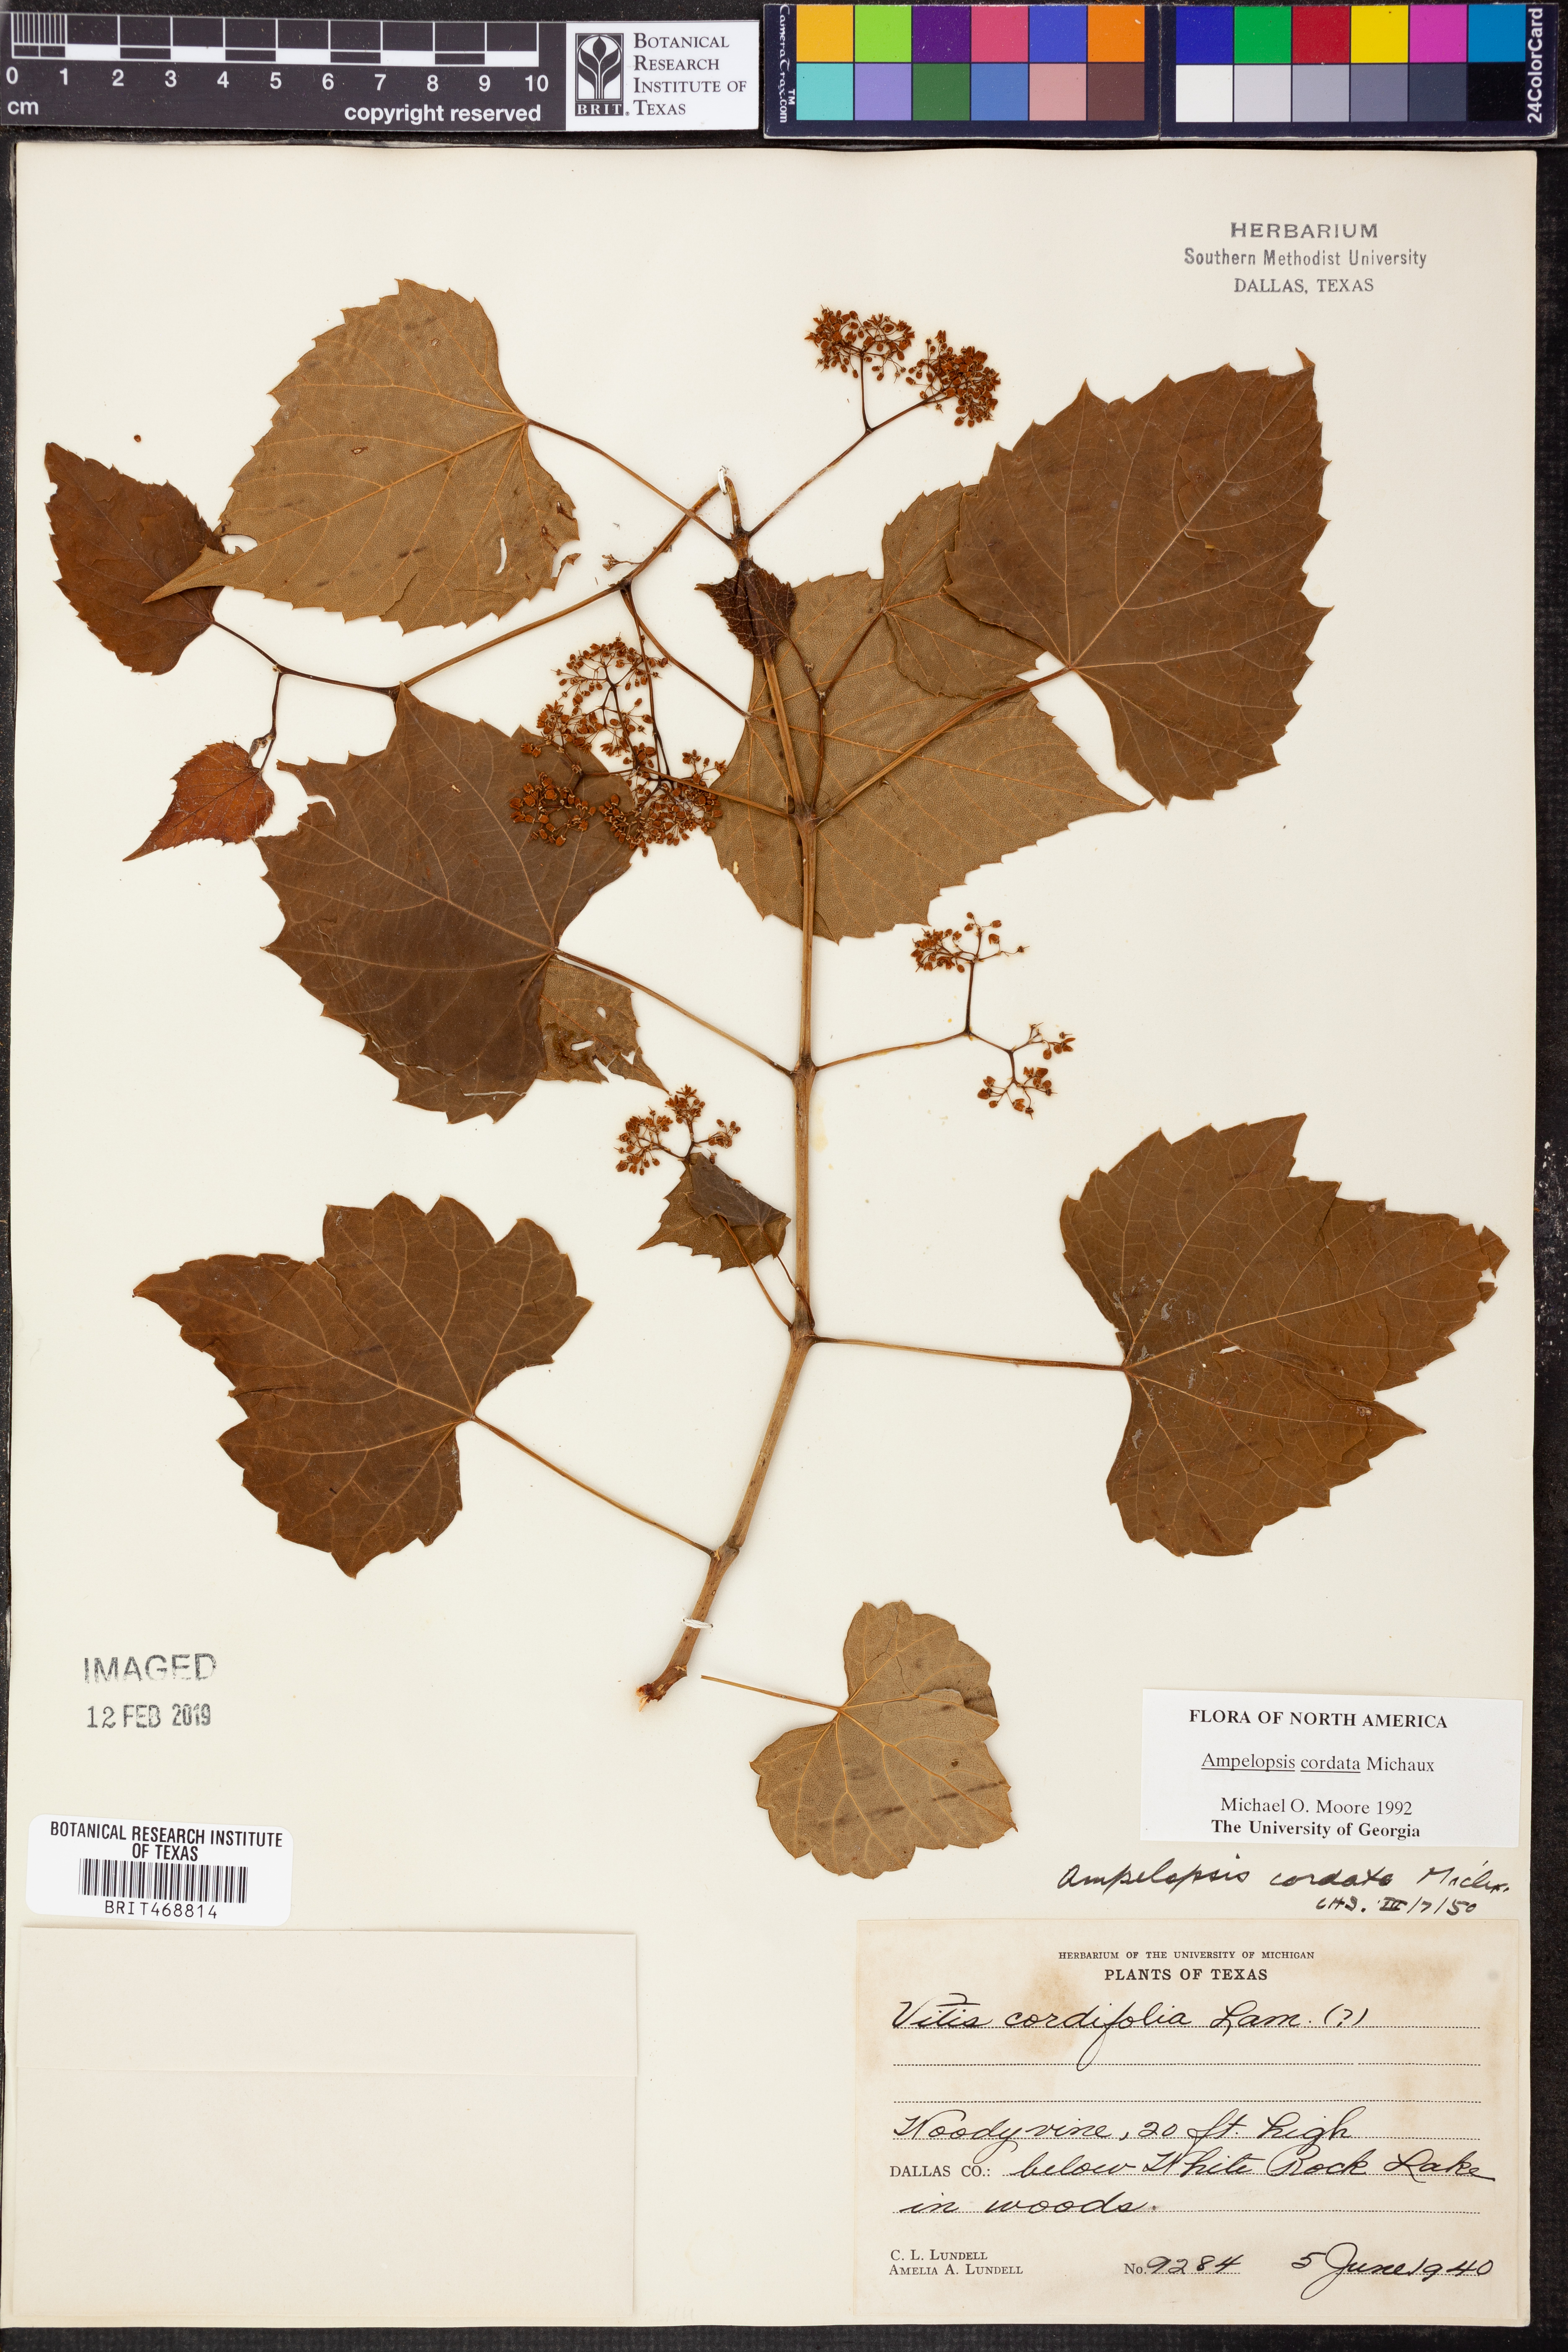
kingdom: Plantae
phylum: Tracheophyta
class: Magnoliopsida
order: Vitales
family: Vitaceae
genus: Ampelopsis
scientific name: Ampelopsis cordata
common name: Heart-leaf ampelopsis
